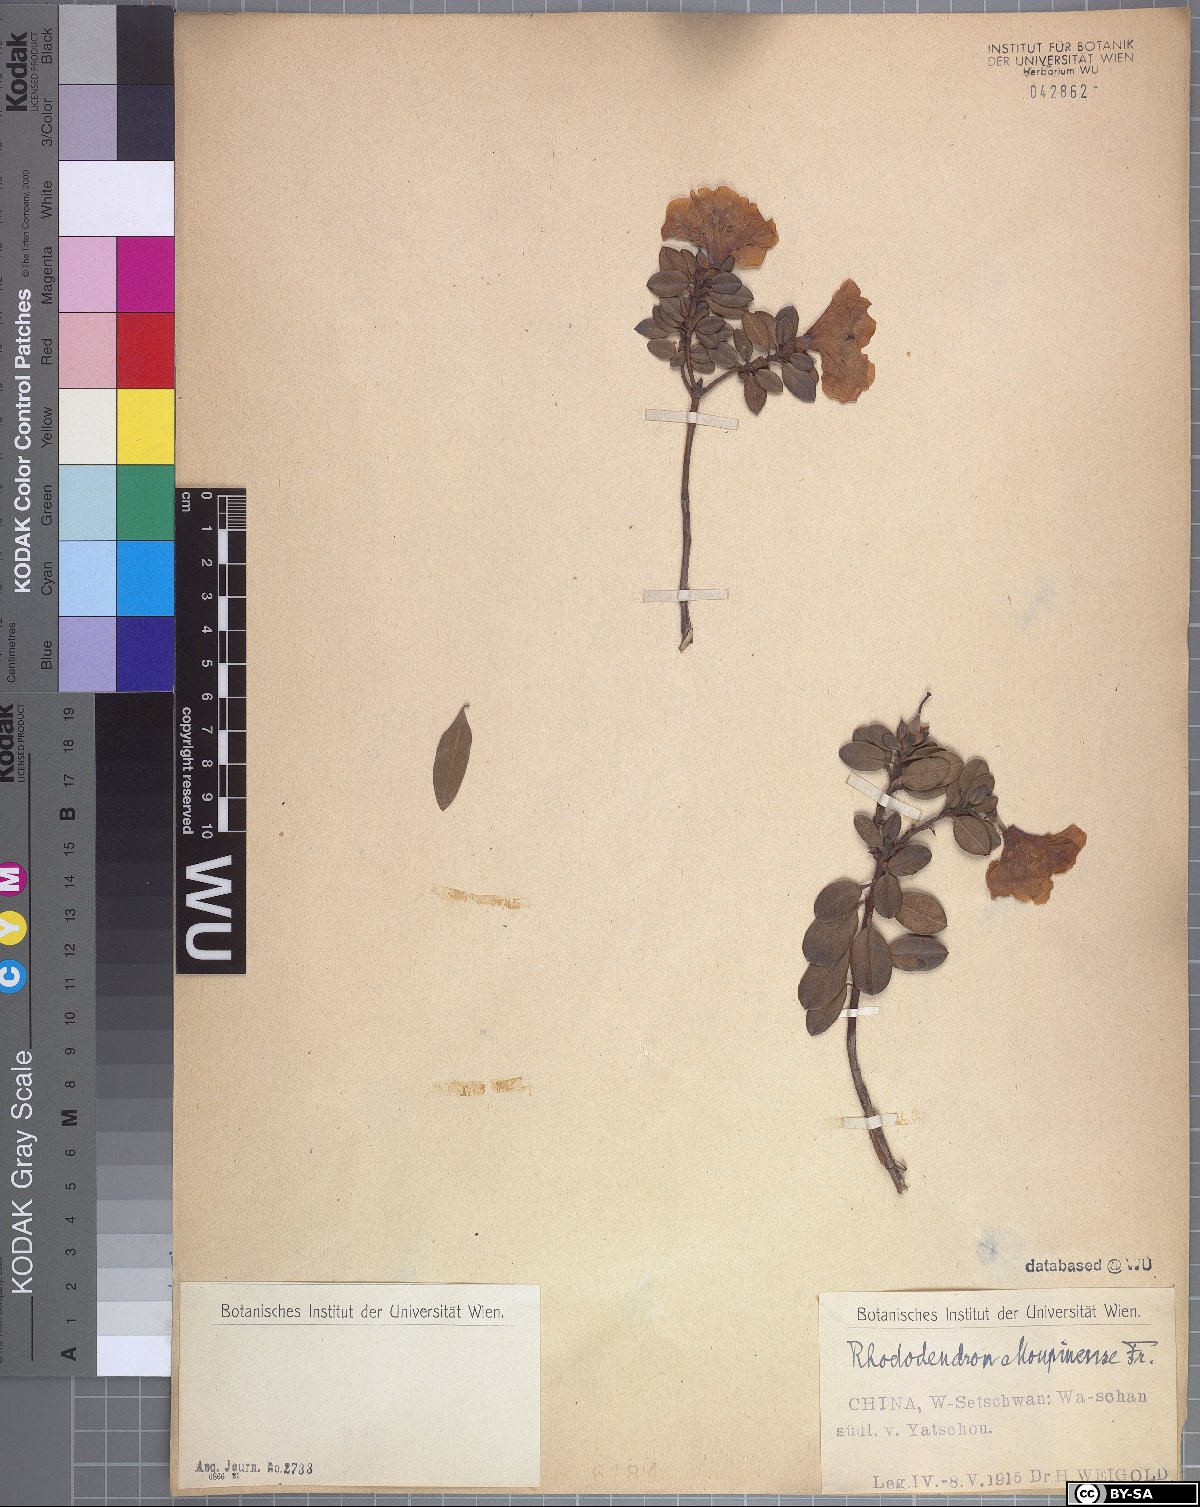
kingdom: Plantae
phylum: Tracheophyta
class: Magnoliopsida
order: Ericales
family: Ericaceae
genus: Rhododendron
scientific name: Rhododendron moupinense
